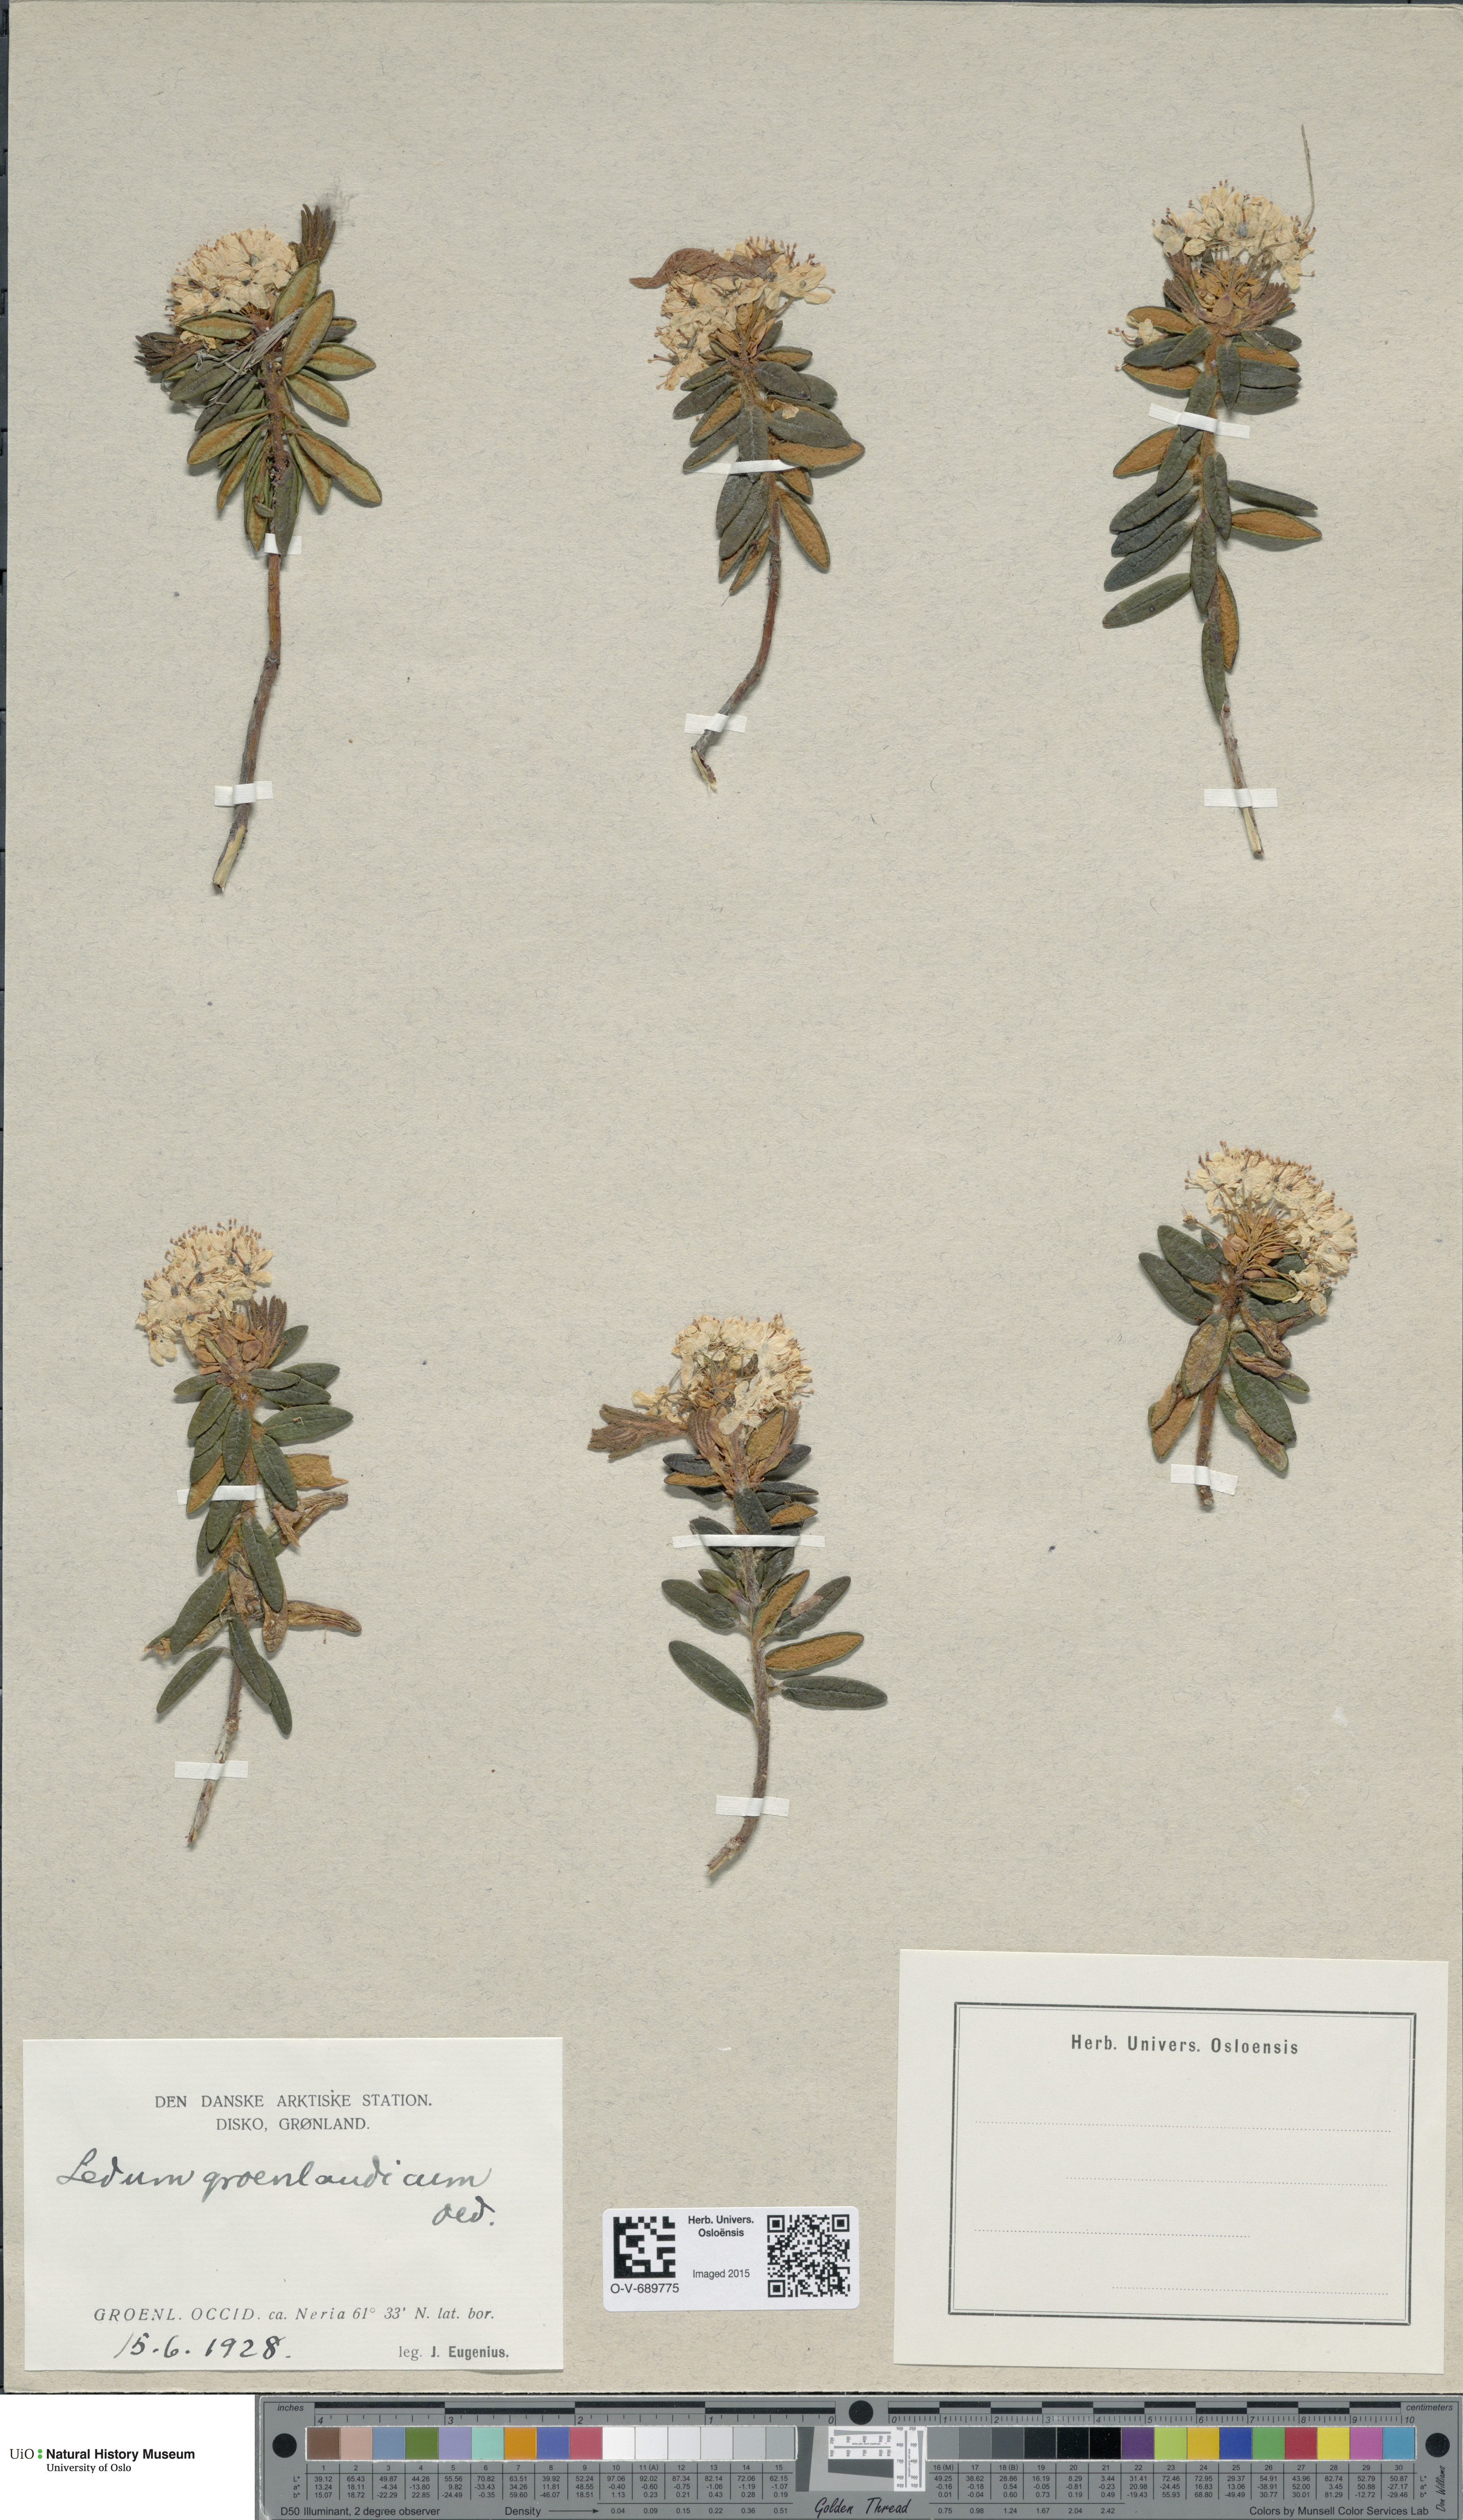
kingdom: Plantae
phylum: Tracheophyta
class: Magnoliopsida
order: Ericales
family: Ericaceae
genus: Rhododendron
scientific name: Rhododendron groenlandicum
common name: Bog labrador tea
